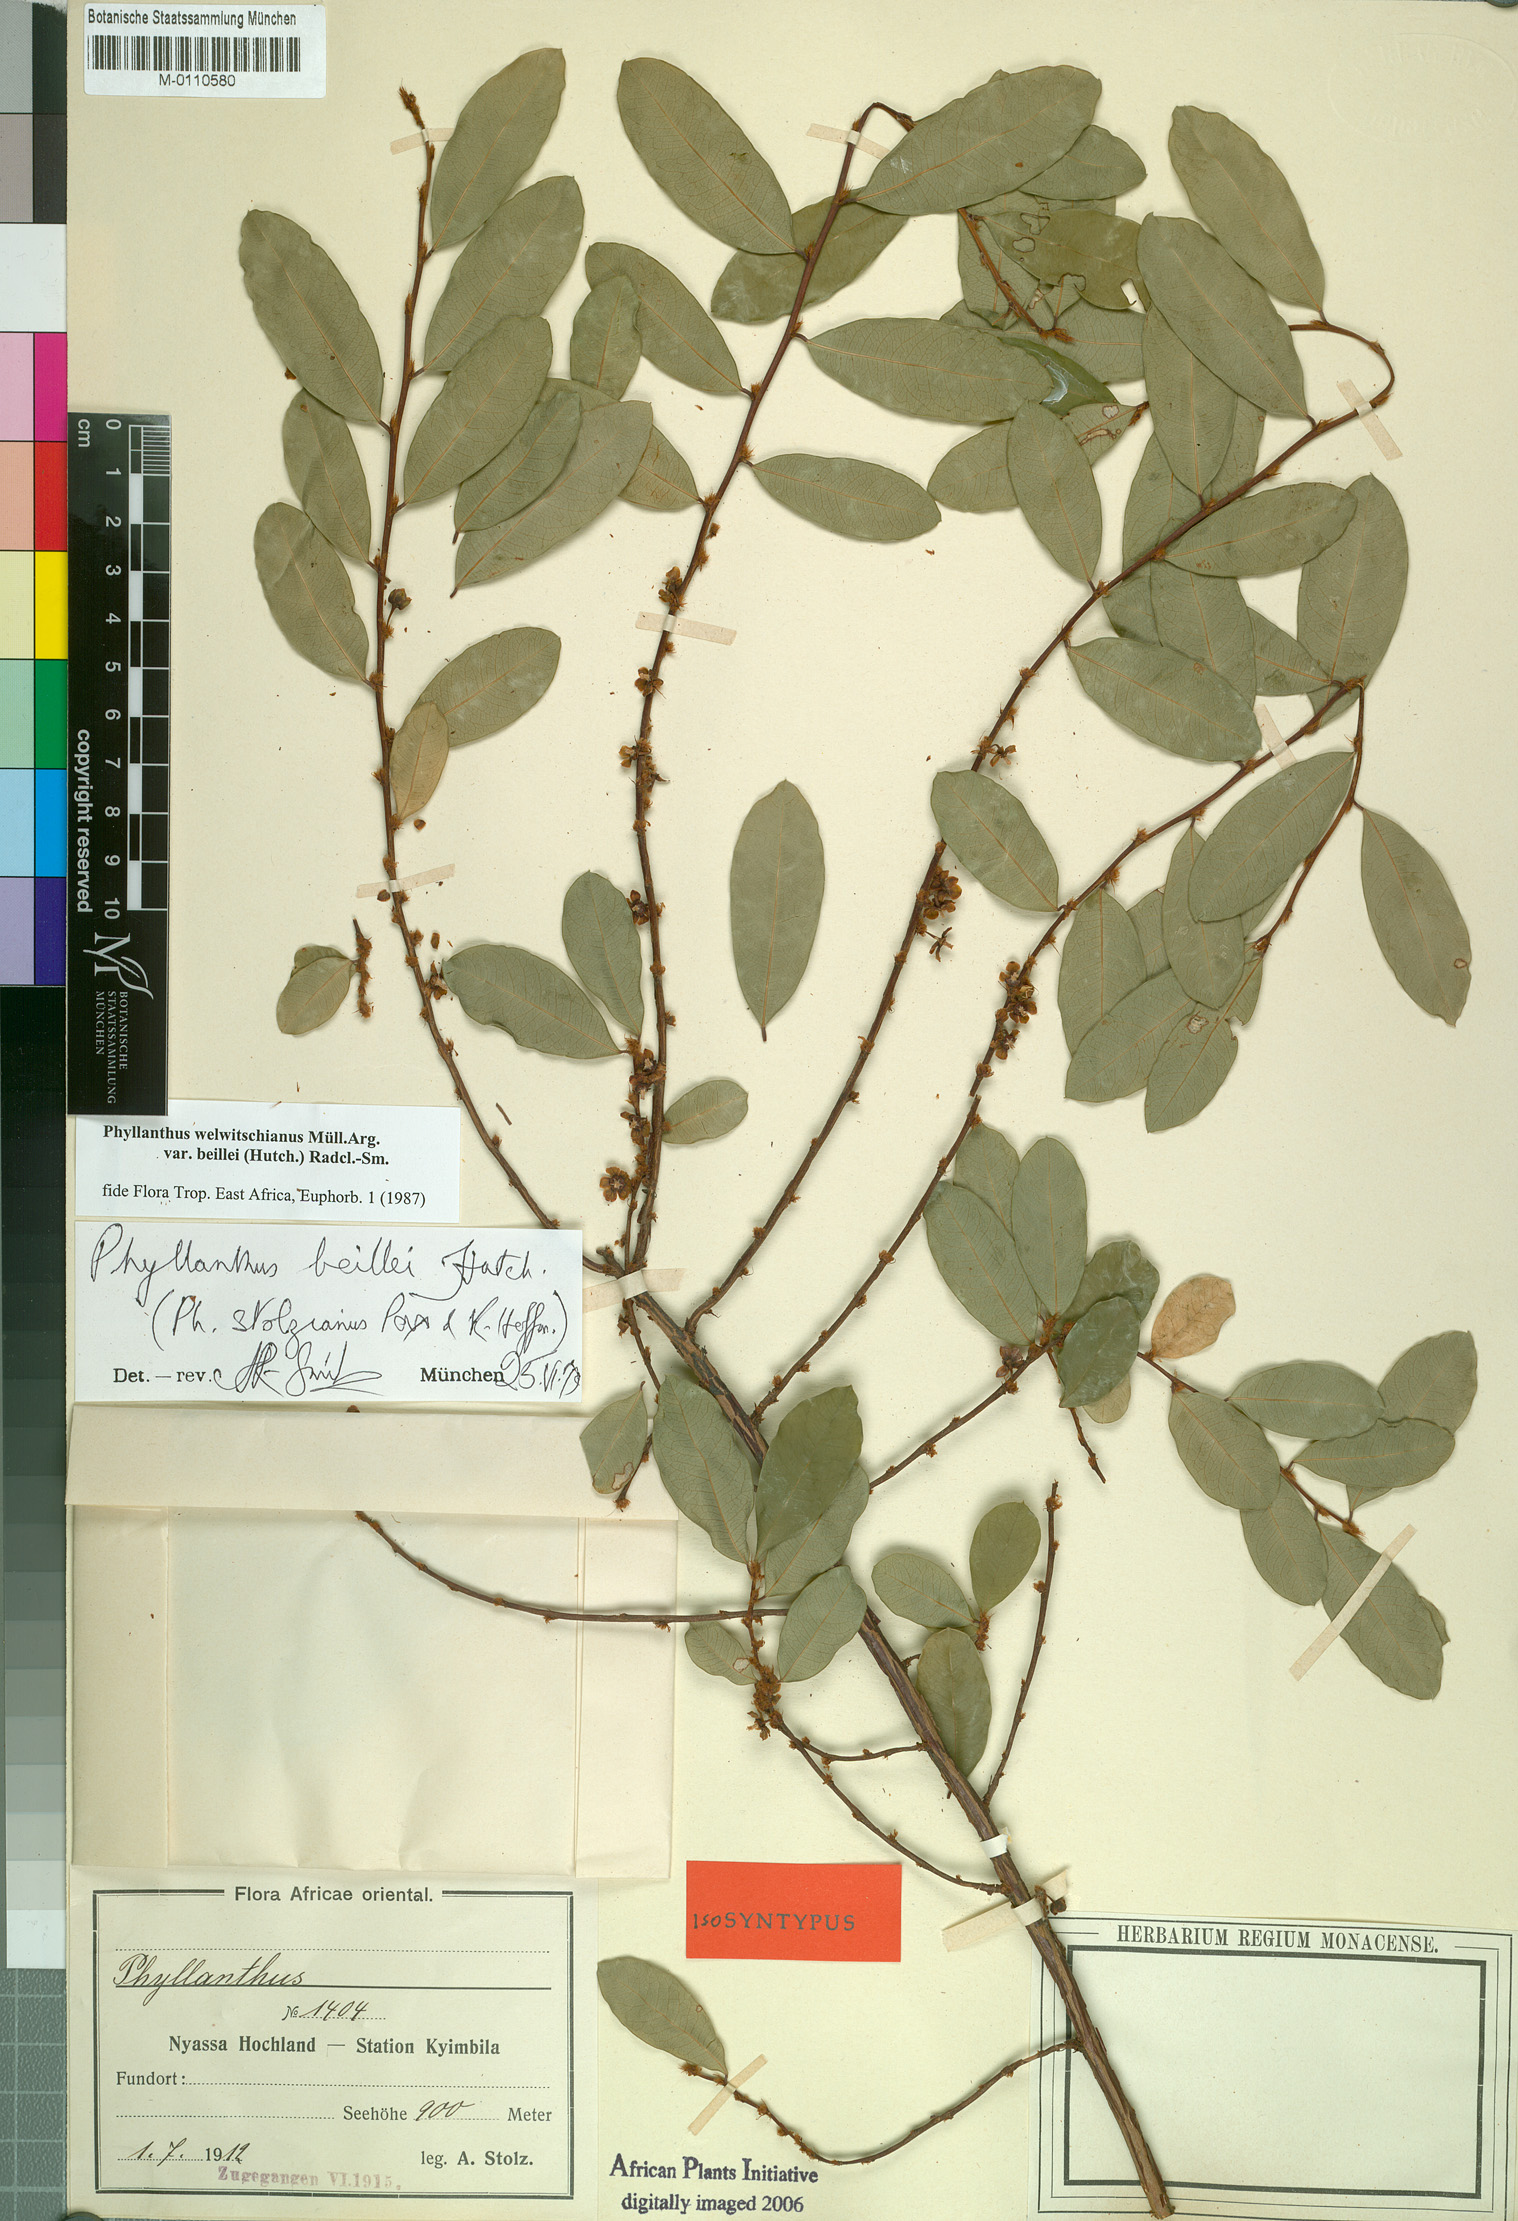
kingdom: Plantae
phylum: Tracheophyta
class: Magnoliopsida
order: Malpighiales
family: Phyllanthaceae
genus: Phyllanthus
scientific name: Phyllanthus welwitschianus
